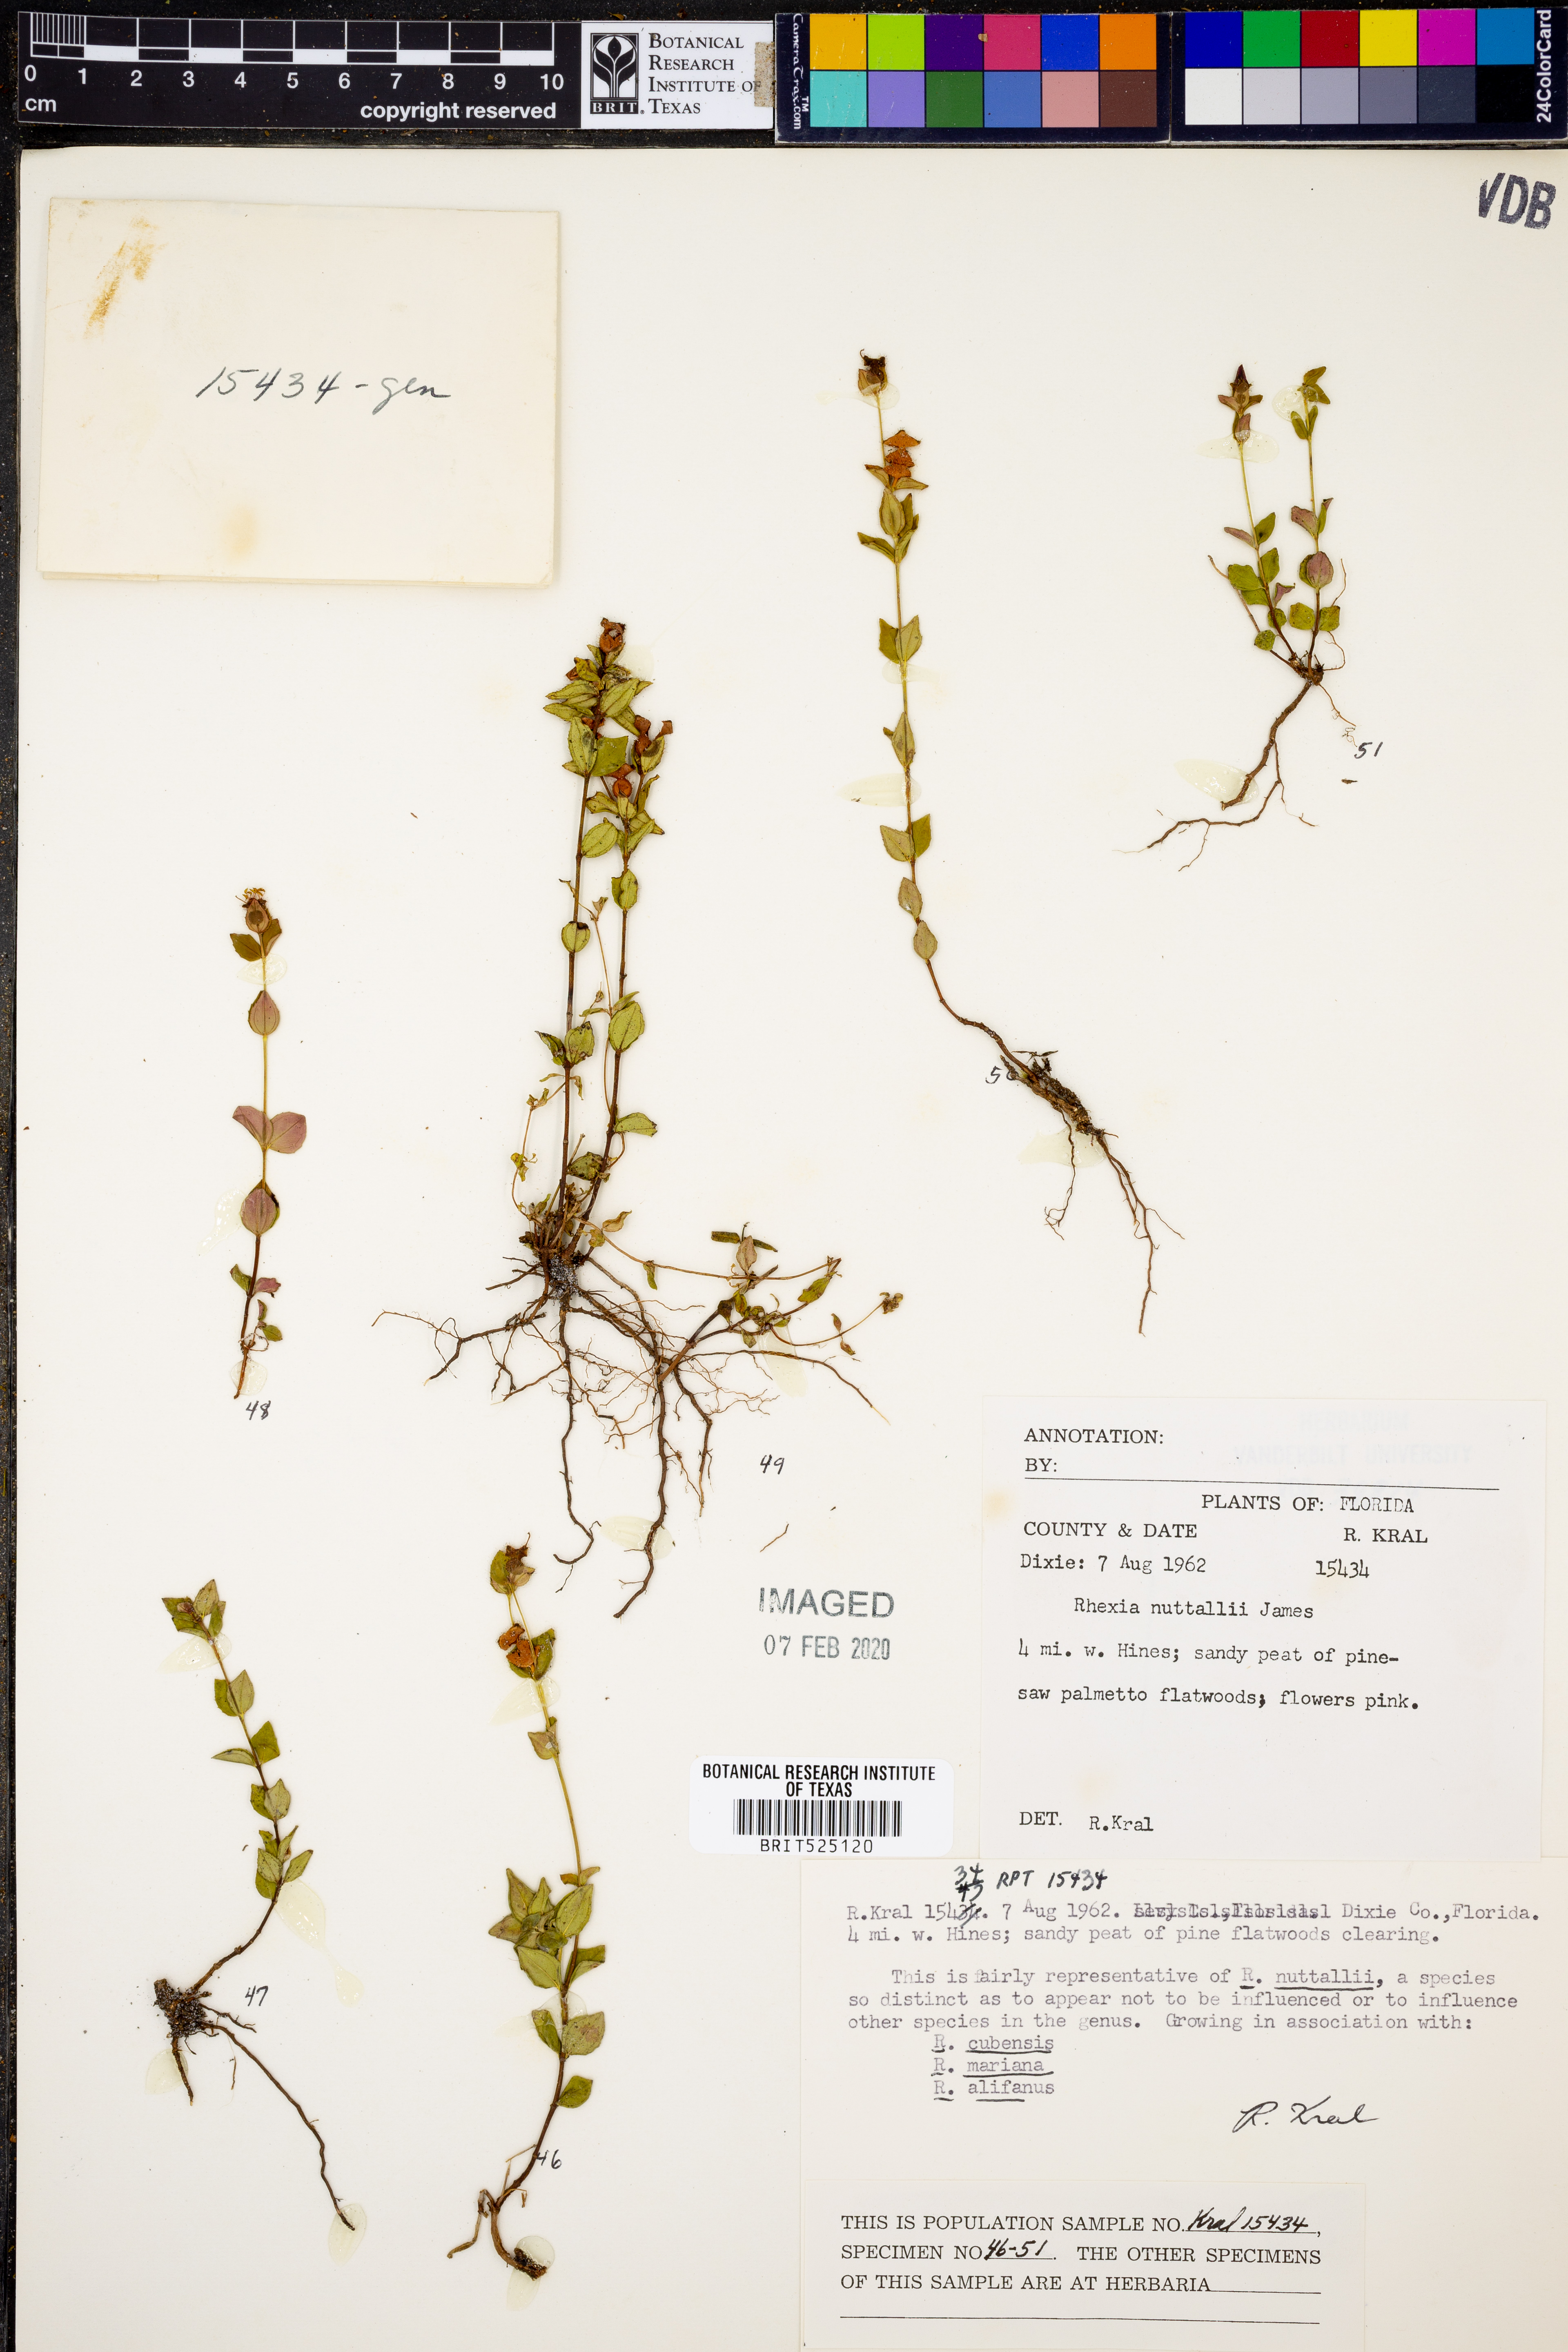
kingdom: Plantae
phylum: Tracheophyta
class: Magnoliopsida
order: Myrtales
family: Melastomataceae
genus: Rhexia
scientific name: Rhexia nuttallii
